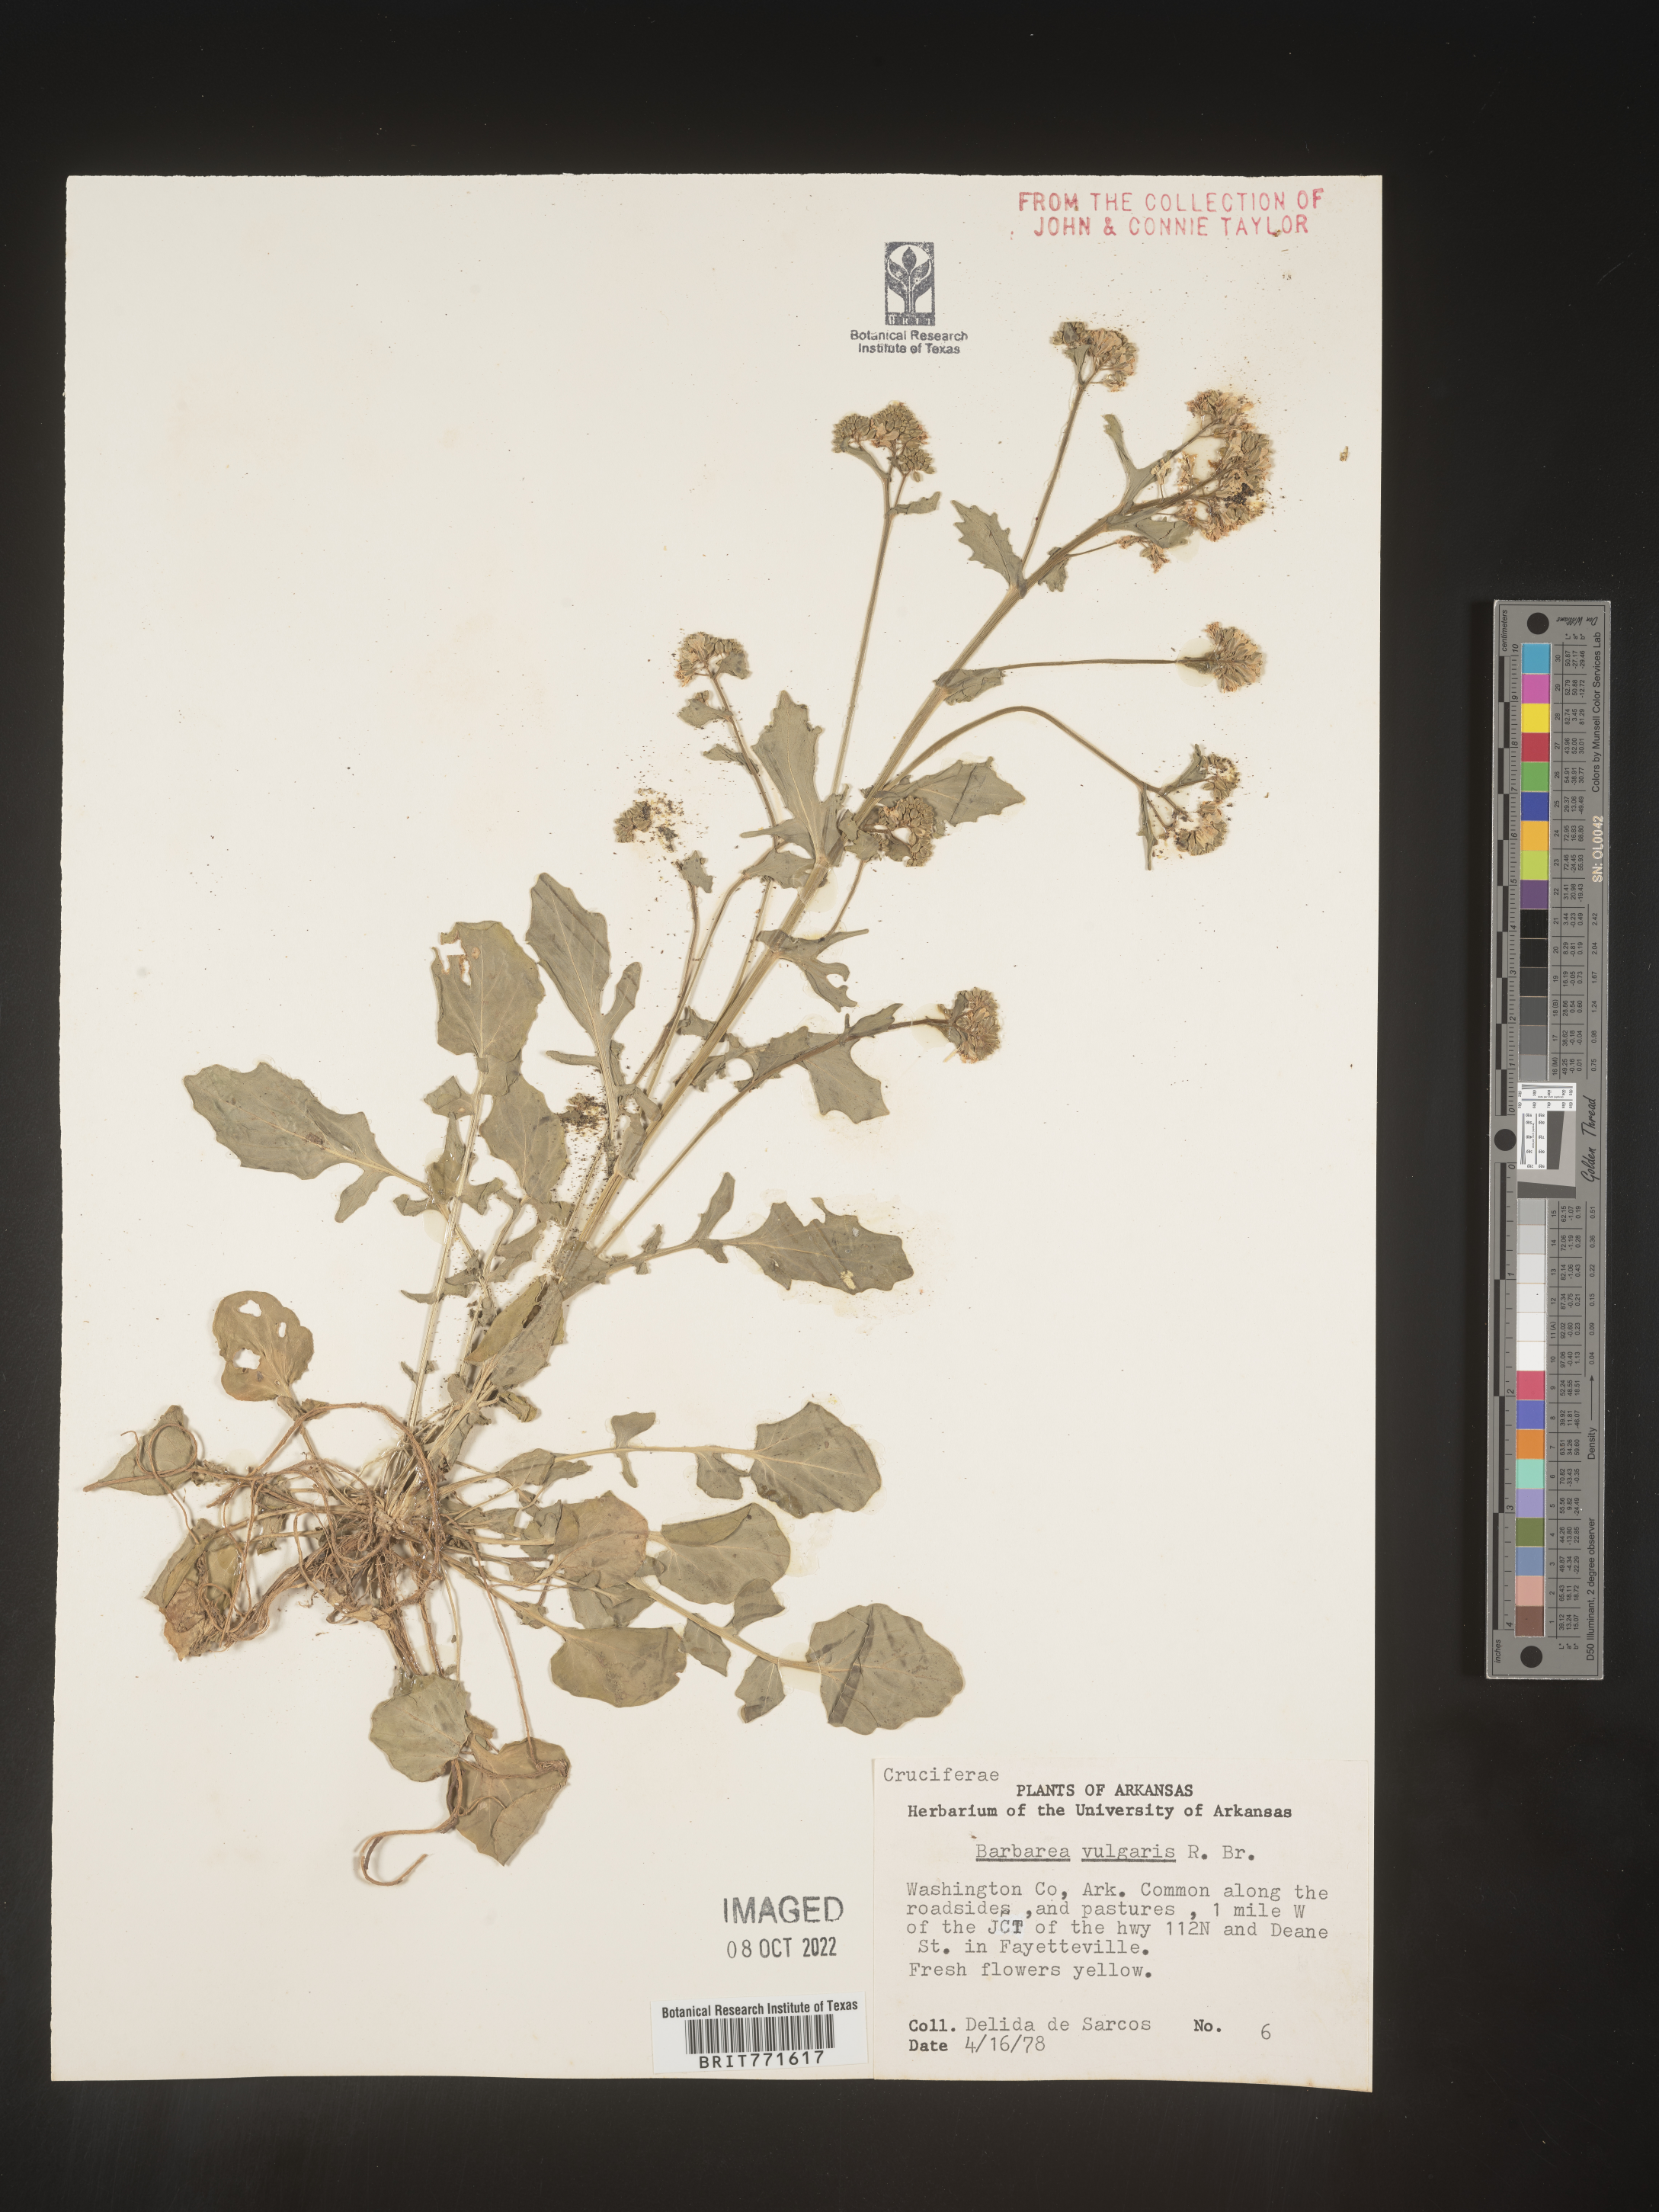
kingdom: Plantae
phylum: Tracheophyta
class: Magnoliopsida
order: Brassicales
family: Brassicaceae
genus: Barbarea
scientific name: Barbarea vulgaris
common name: Cressy-greens
